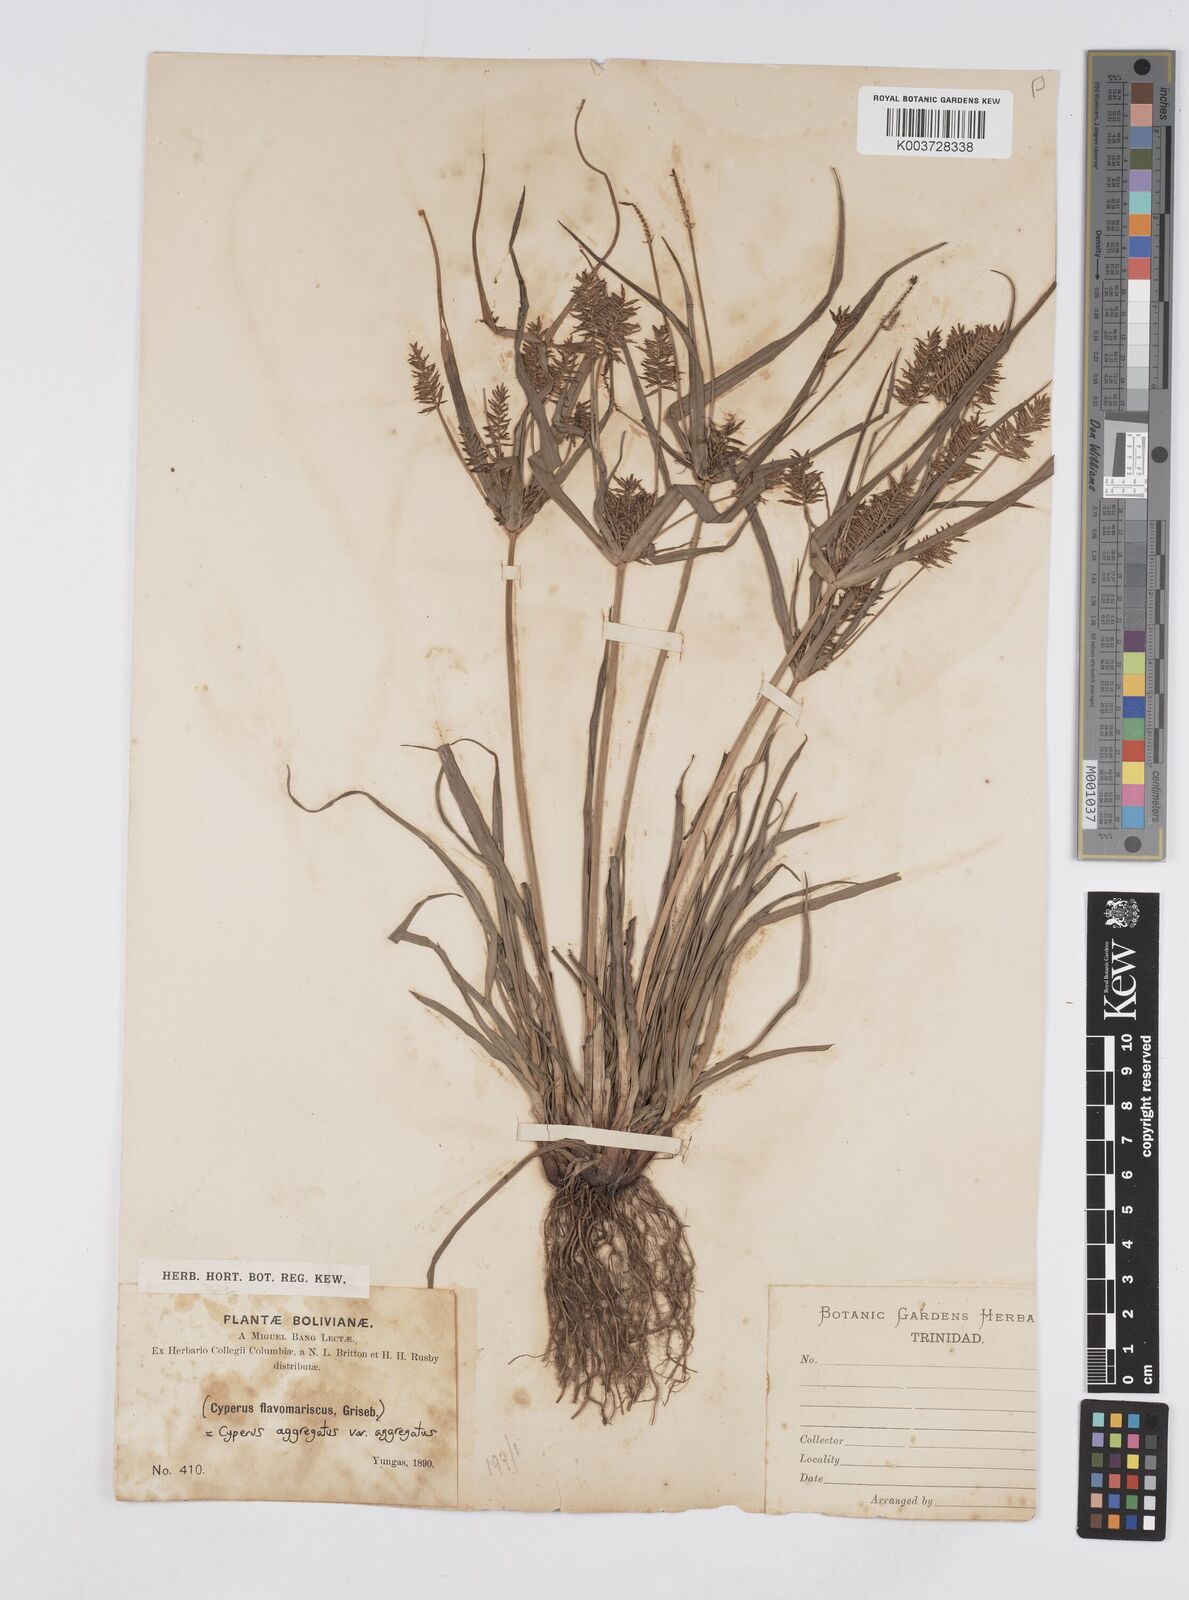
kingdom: Plantae
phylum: Tracheophyta
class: Liliopsida
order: Poales
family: Cyperaceae
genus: Cyperus
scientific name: Cyperus aggregatus
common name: Inflatedscale flatsedge
